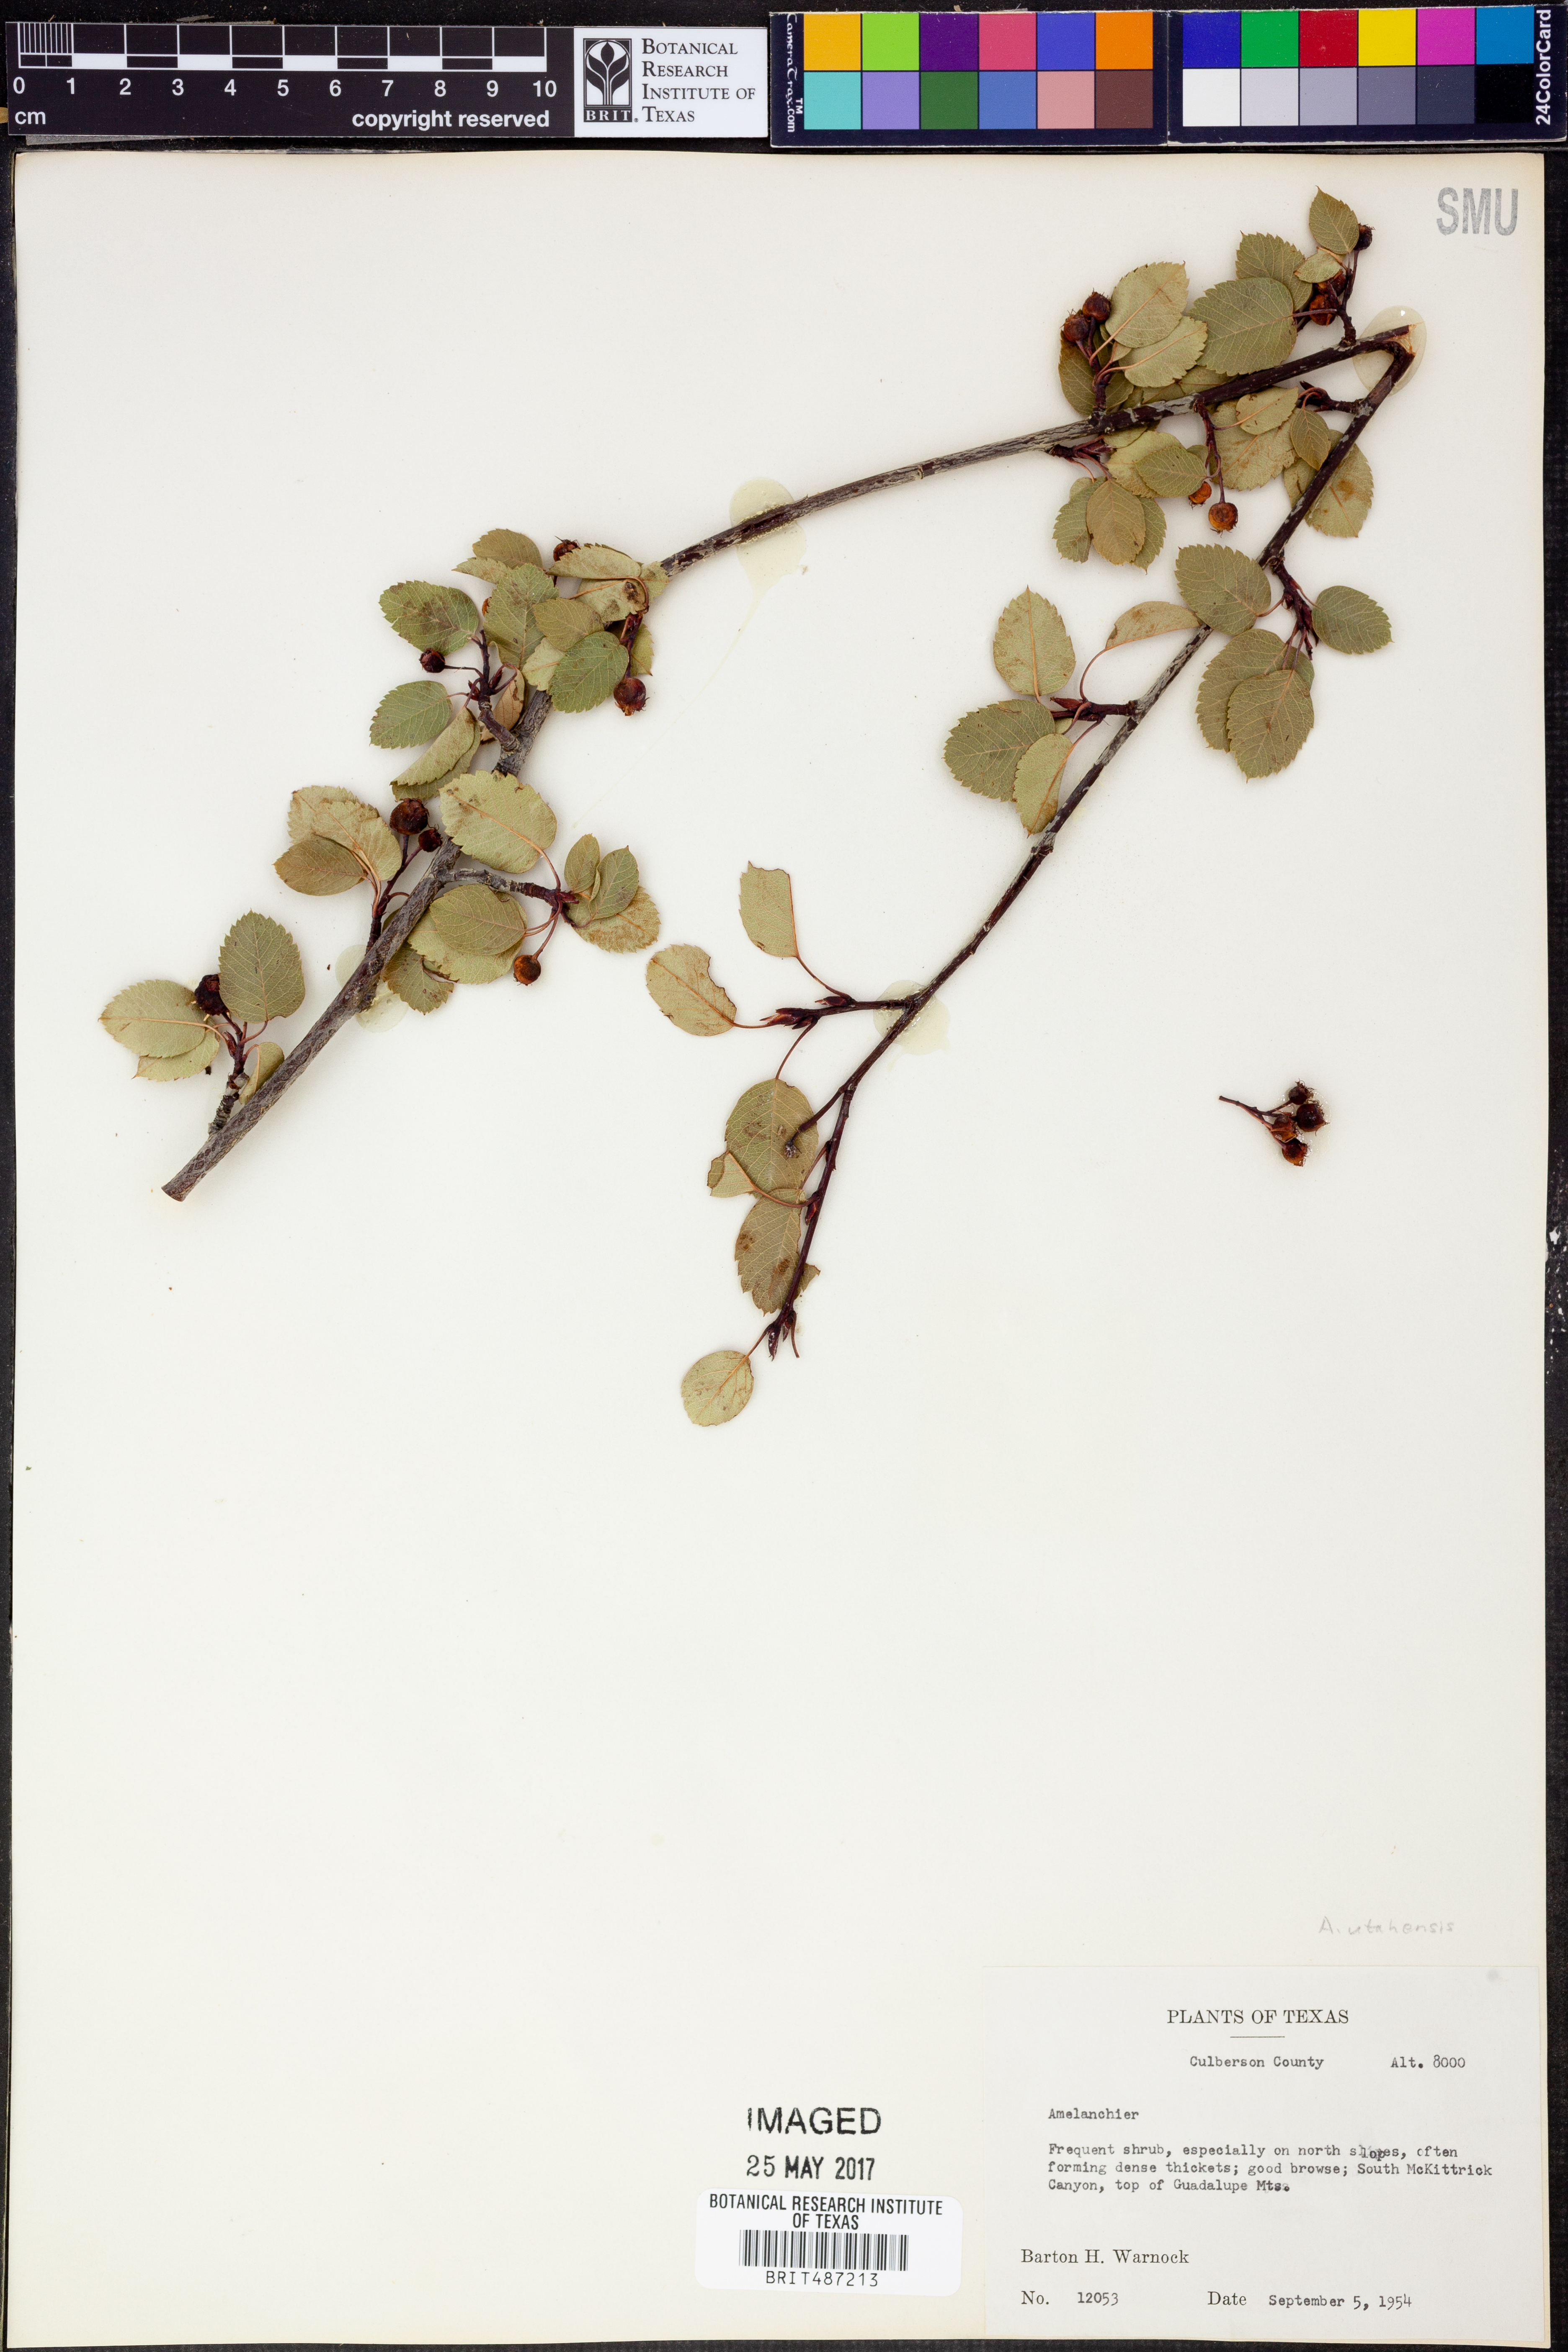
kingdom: Plantae
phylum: Tracheophyta
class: Magnoliopsida
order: Rosales
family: Rosaceae
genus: Amelanchier
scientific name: Amelanchier
